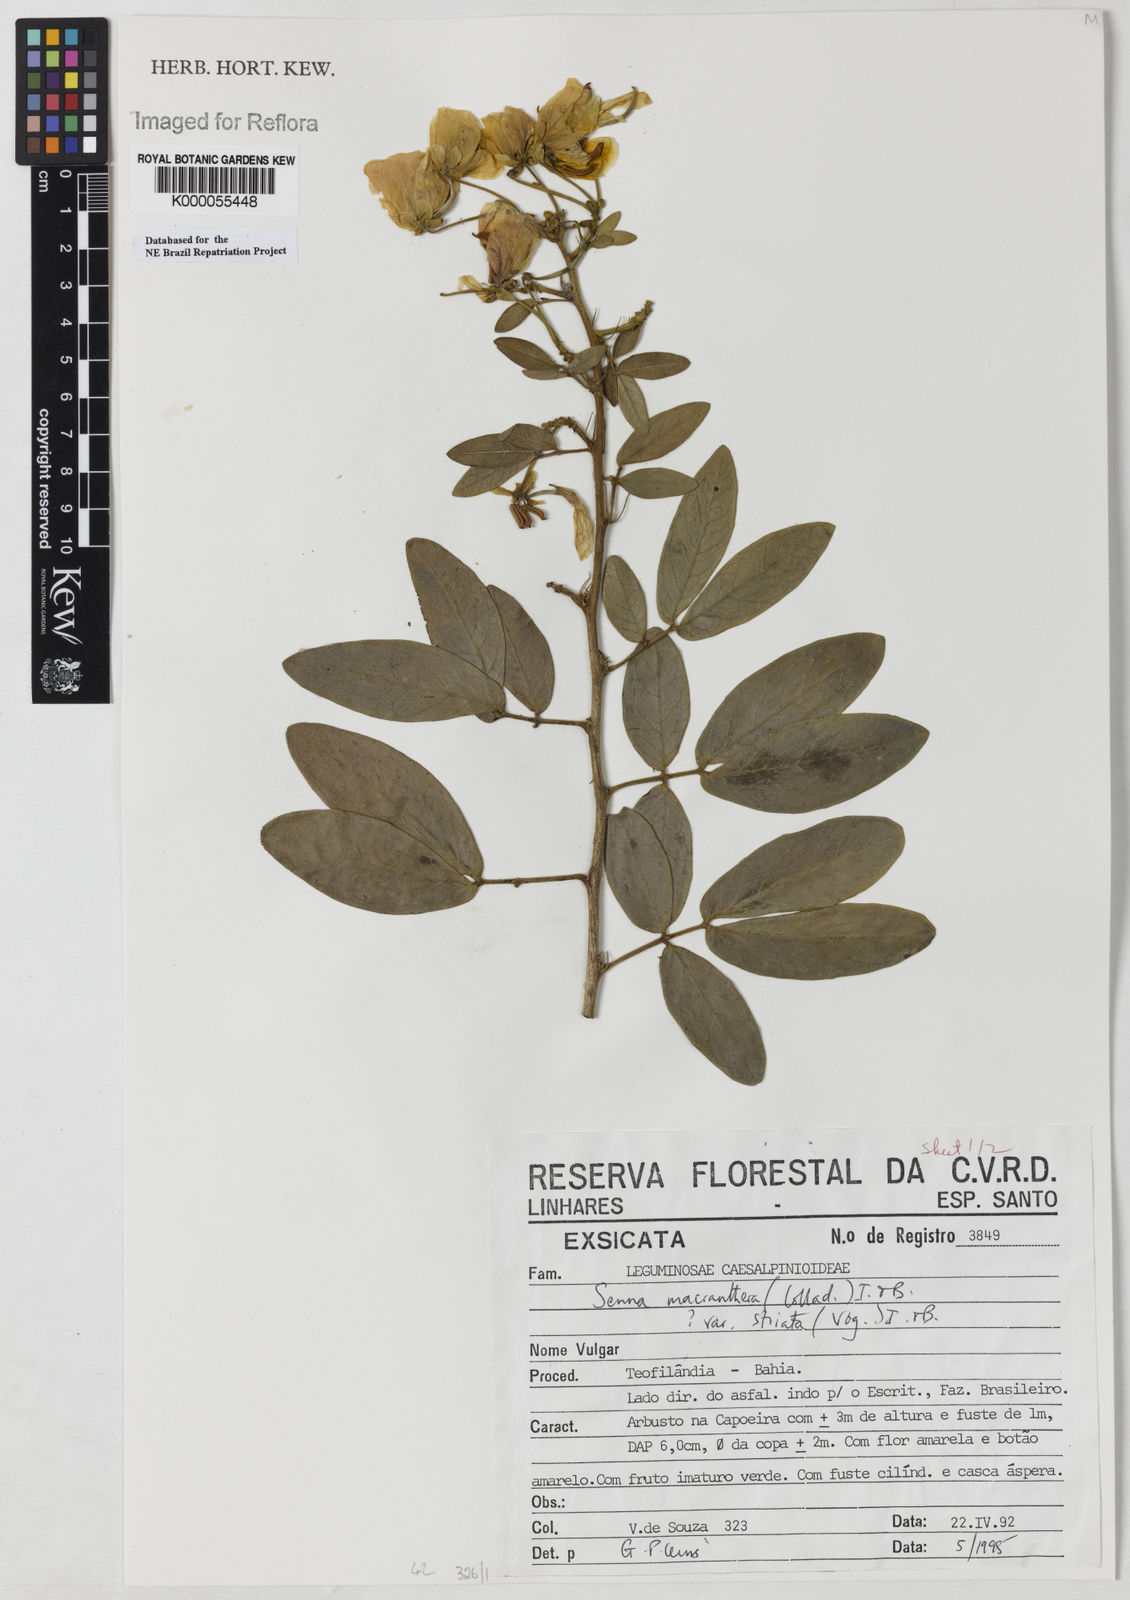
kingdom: Plantae
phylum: Tracheophyta
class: Magnoliopsida
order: Fabales
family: Fabaceae
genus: Senna
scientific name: Senna macranthera
